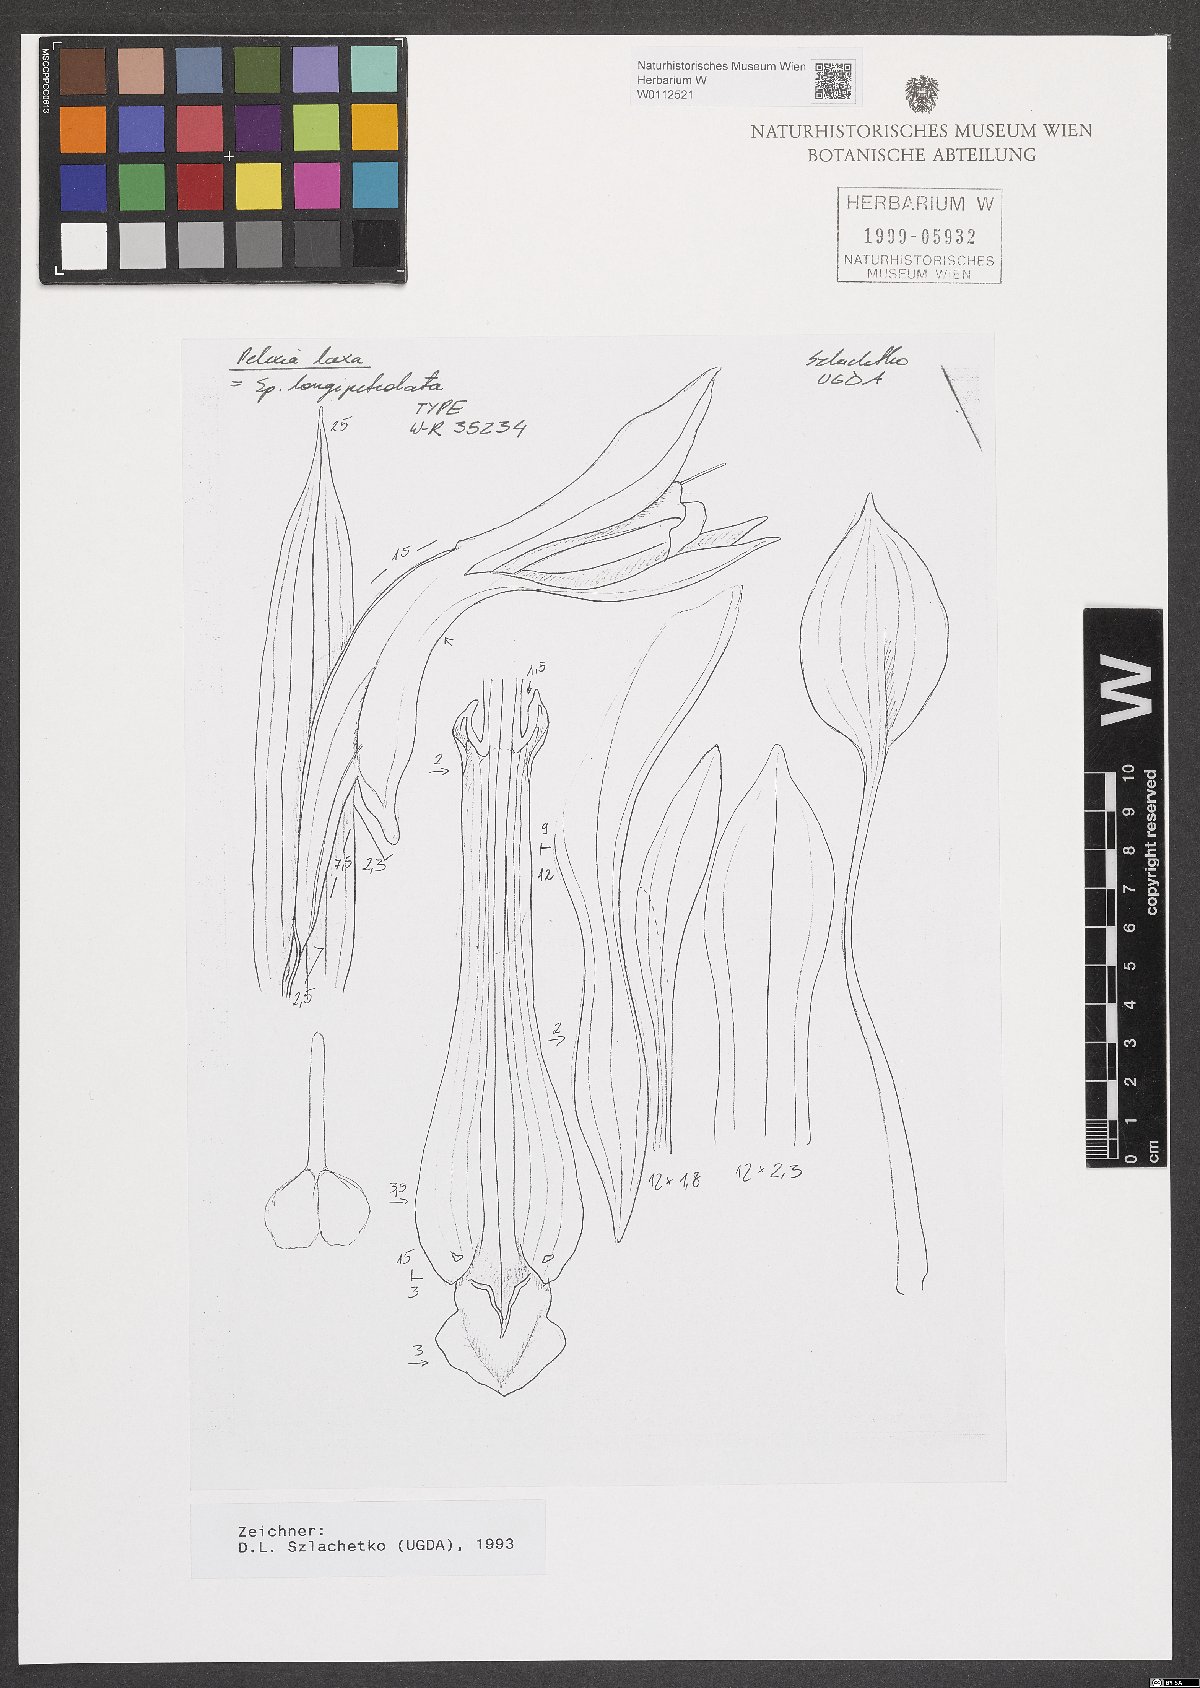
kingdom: Plantae
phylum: Tracheophyta
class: Liliopsida
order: Asparagales
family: Orchidaceae
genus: Pelexia
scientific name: Pelexia laxa
